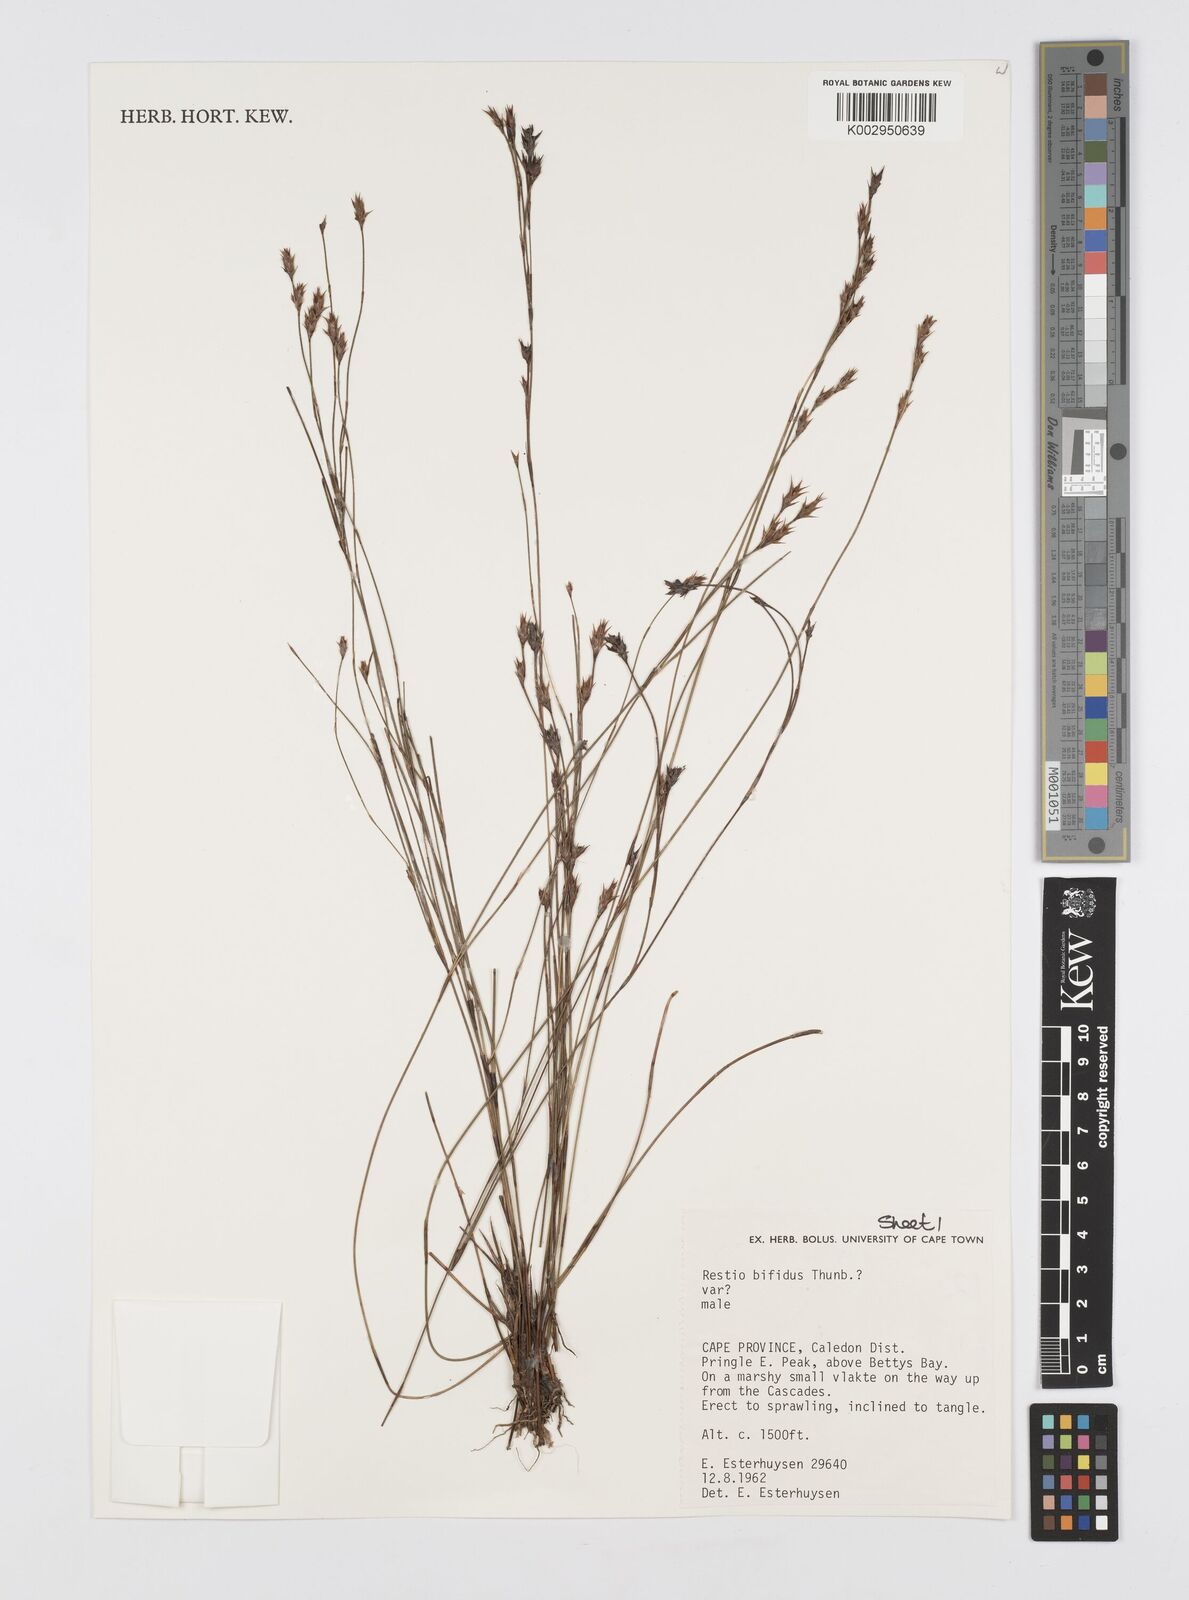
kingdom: Plantae
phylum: Tracheophyta
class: Liliopsida
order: Poales
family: Restionaceae
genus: Restio
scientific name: Restio bifidus
